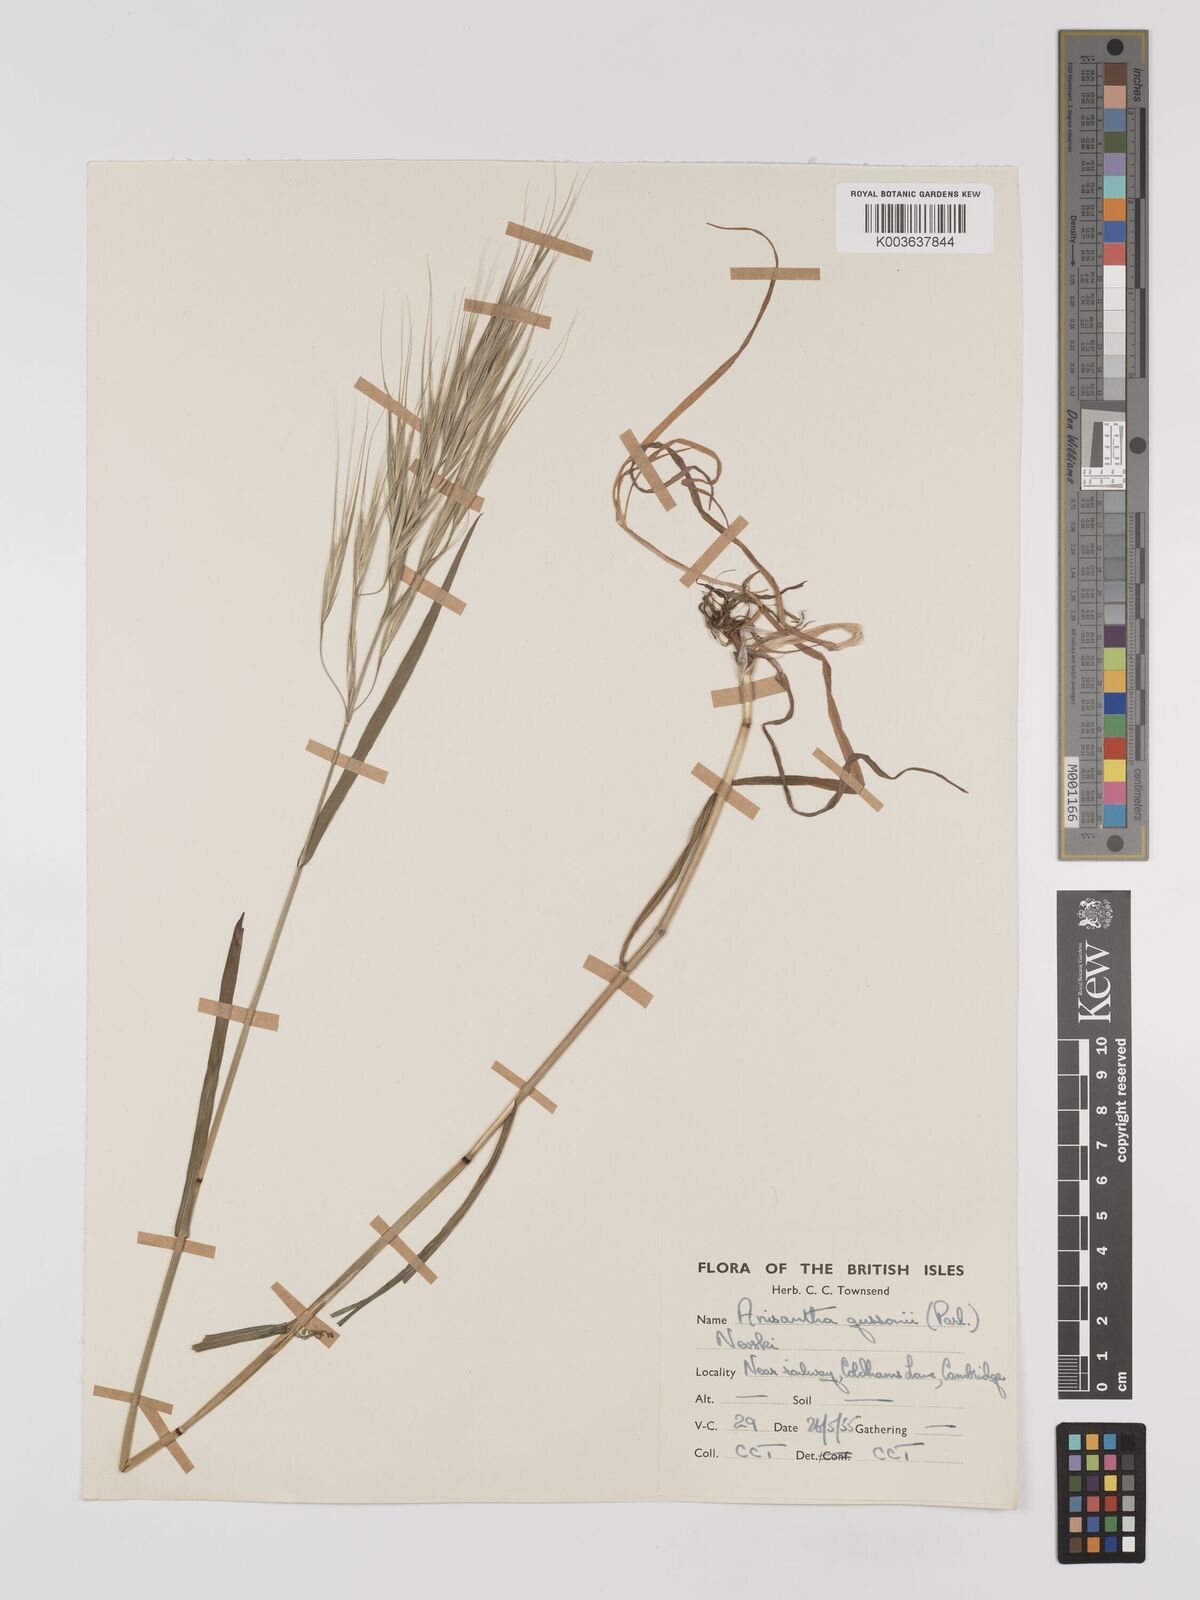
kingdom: Plantae
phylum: Tracheophyta
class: Liliopsida
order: Poales
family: Poaceae
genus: Bromus
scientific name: Bromus
